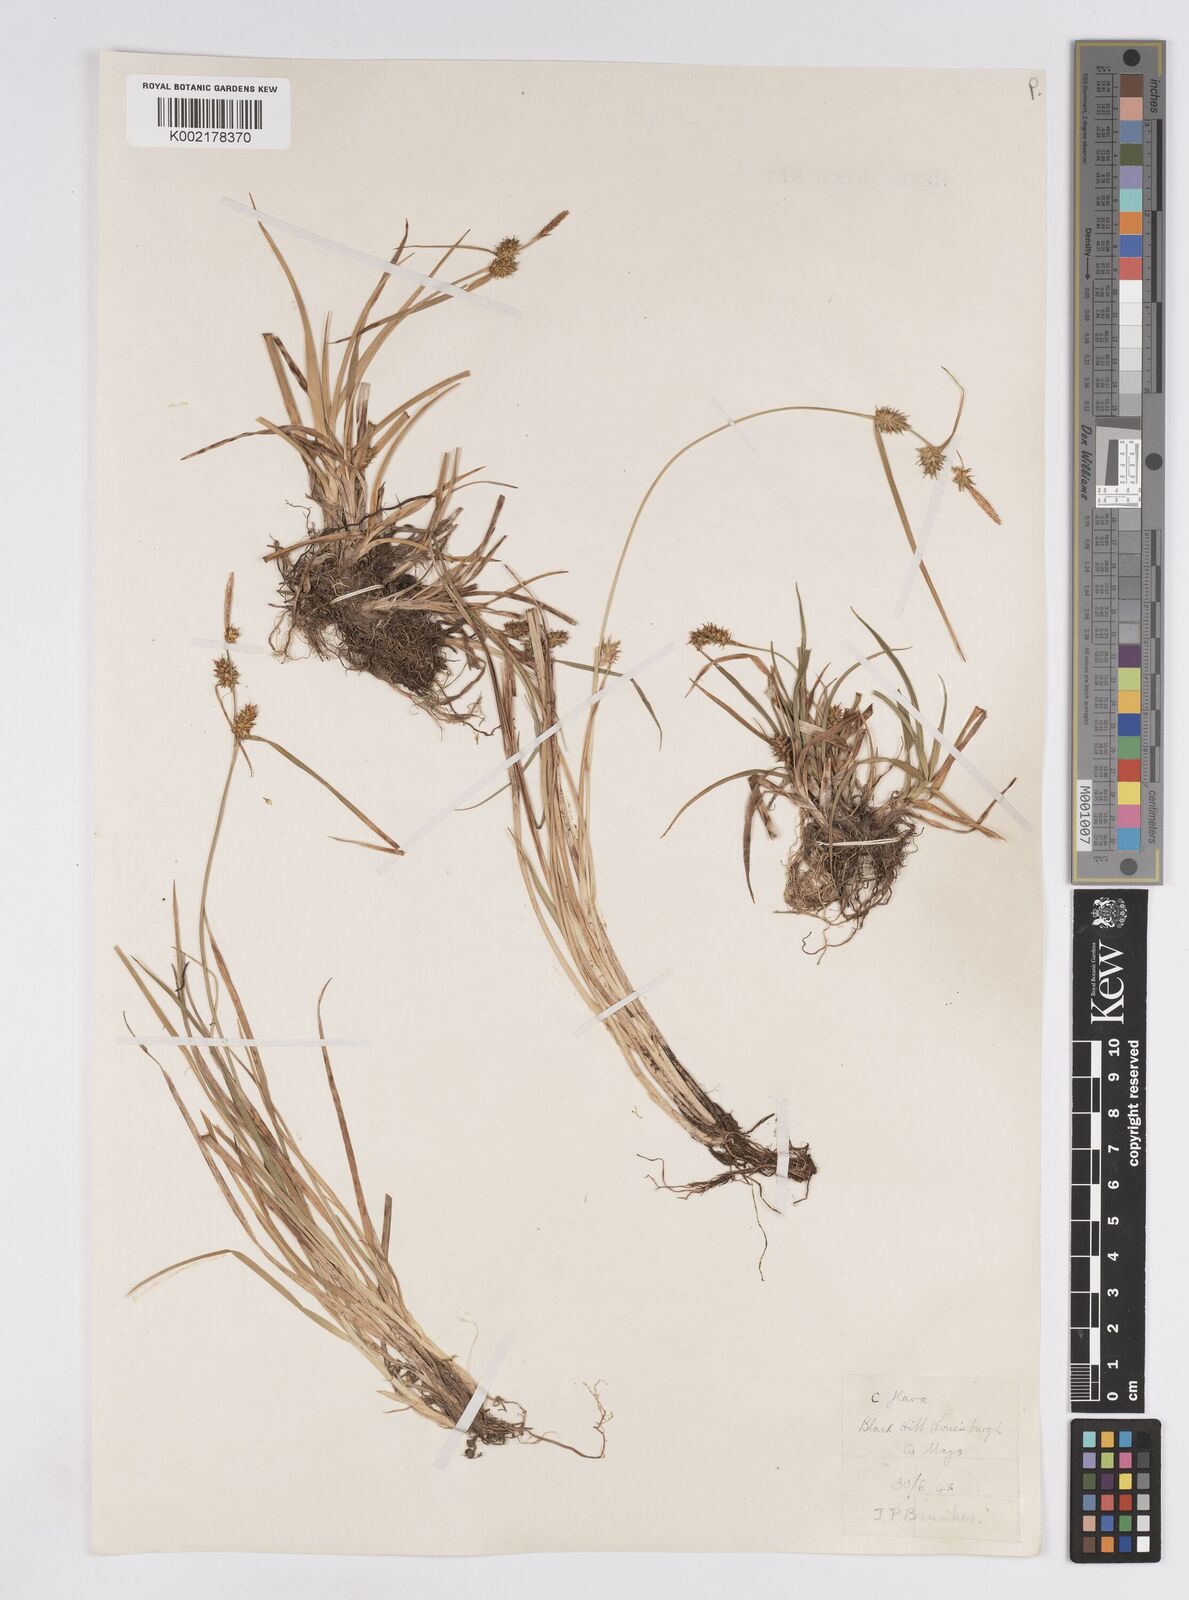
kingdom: Plantae
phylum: Tracheophyta
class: Liliopsida
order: Poales
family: Cyperaceae
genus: Carex
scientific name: Carex demissa
